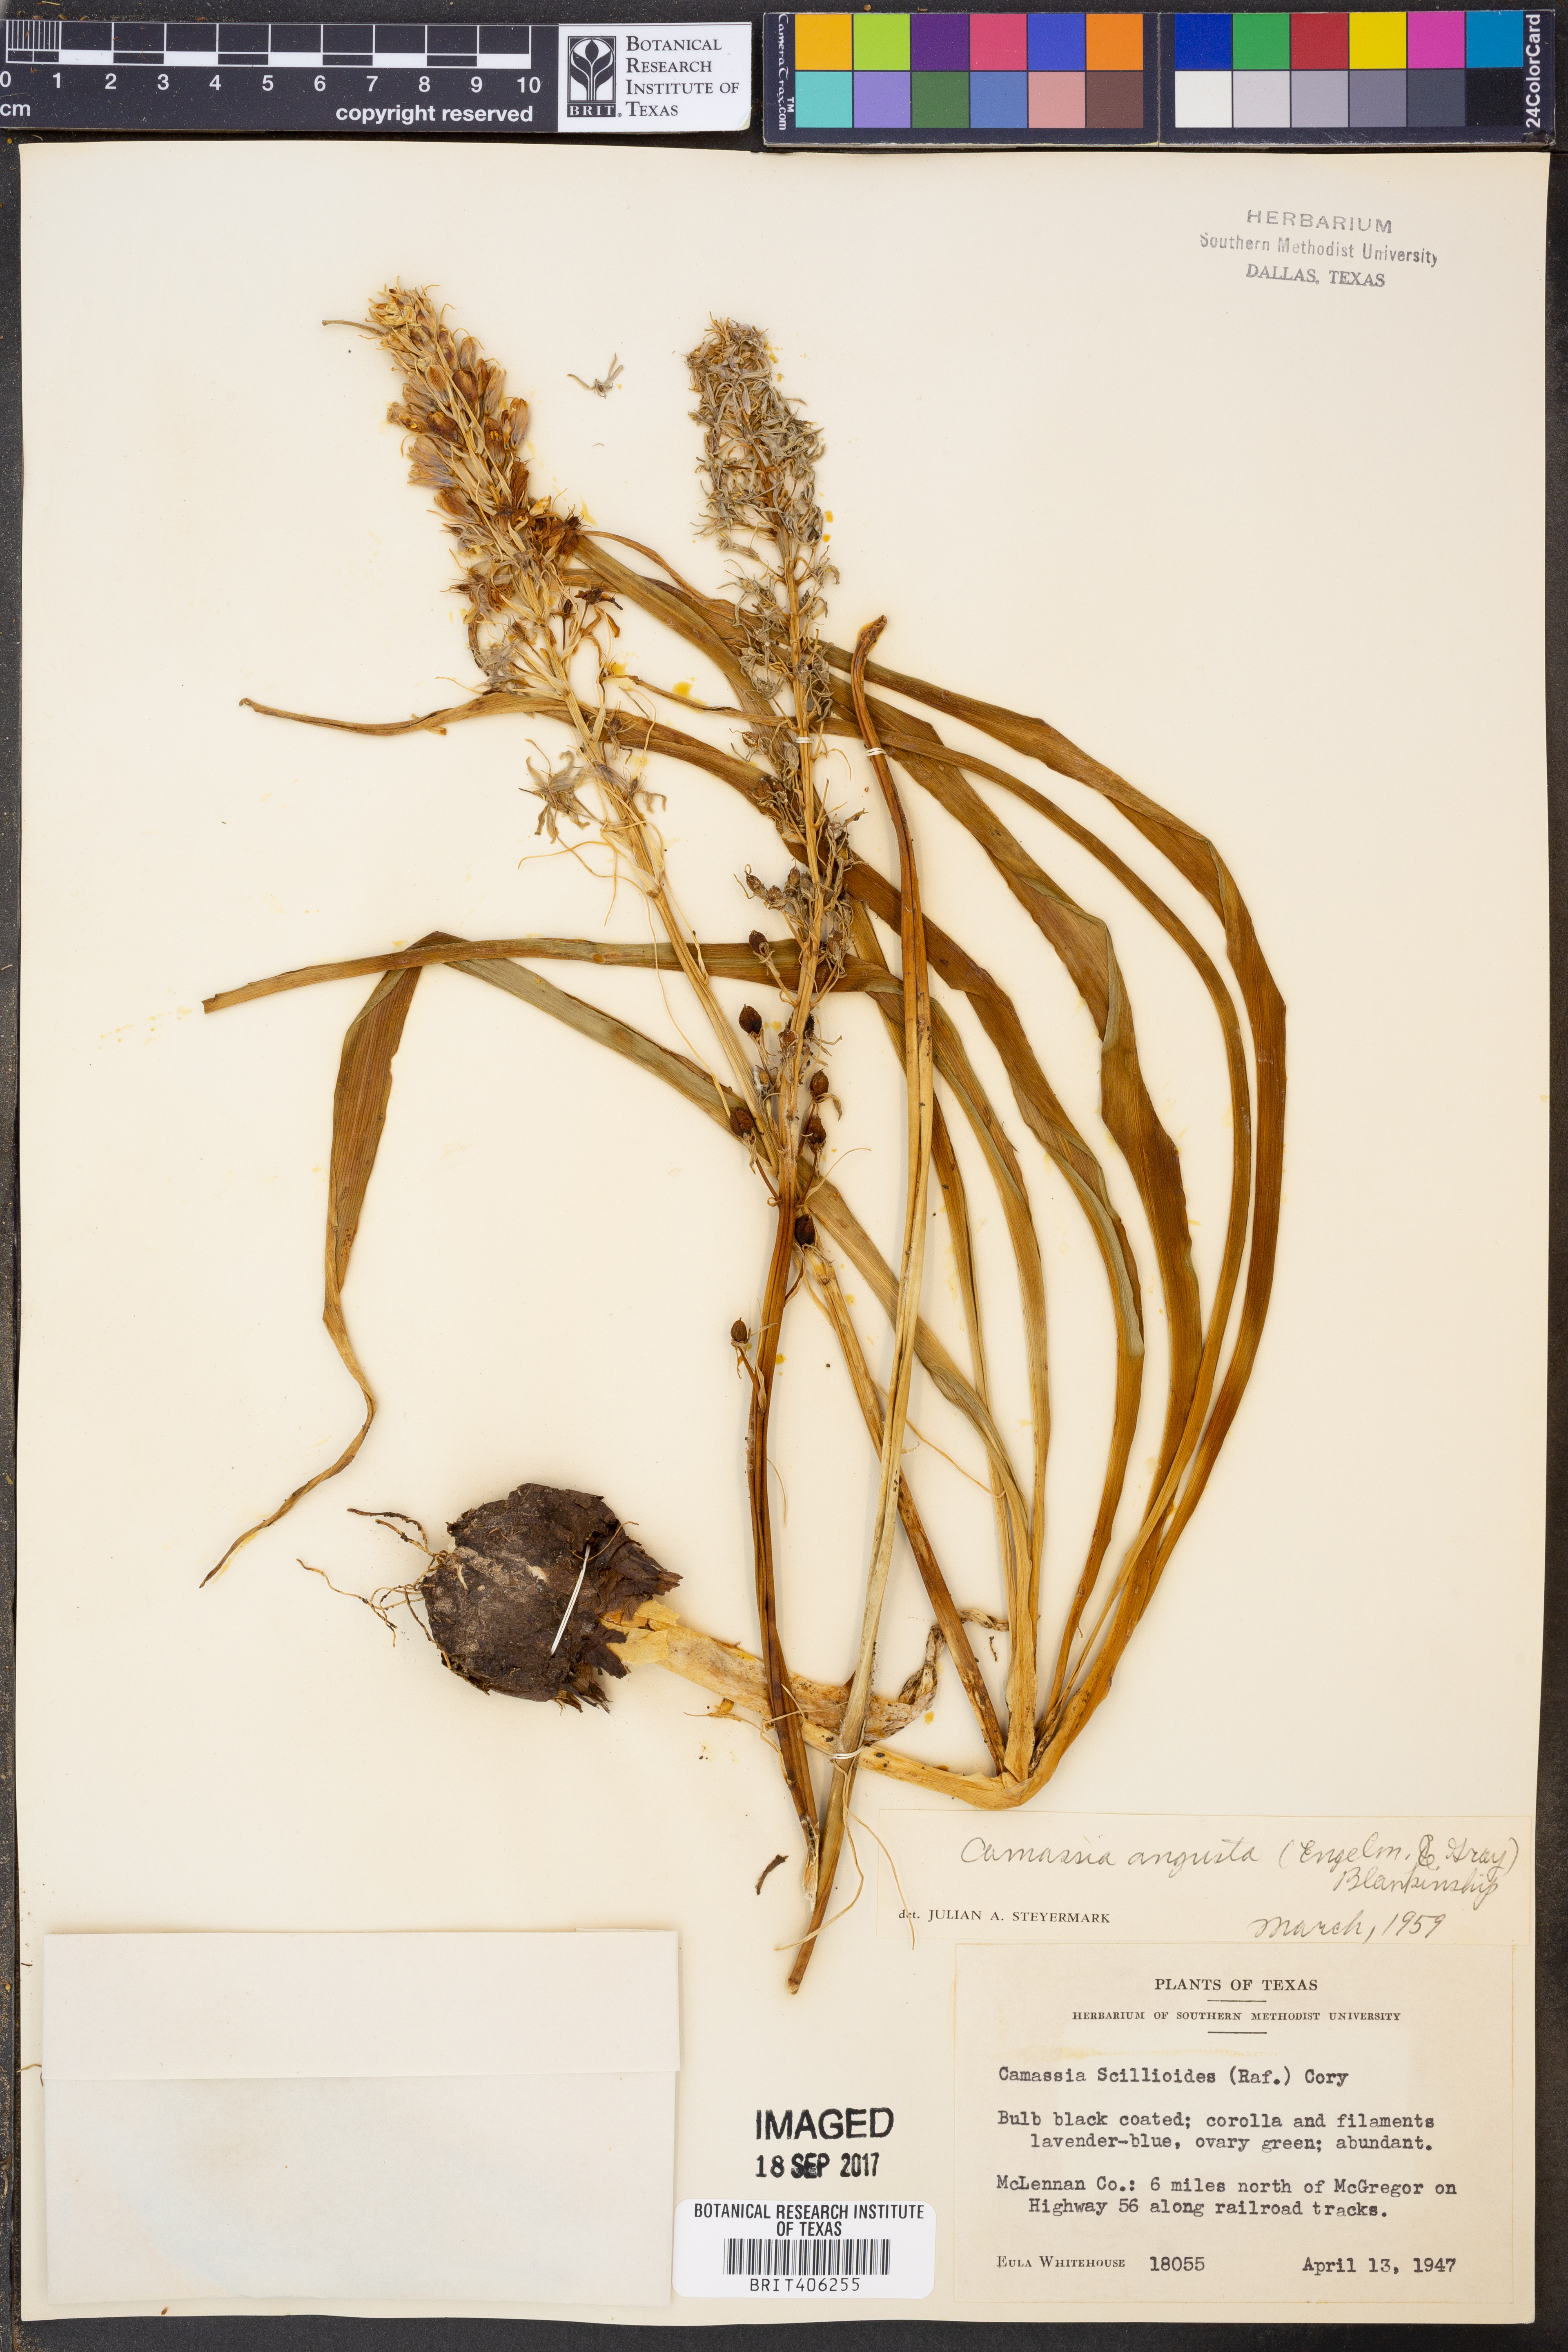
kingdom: Plantae
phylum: Tracheophyta
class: Liliopsida
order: Asparagales
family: Asparagaceae
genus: Camassia
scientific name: Camassia angusta
